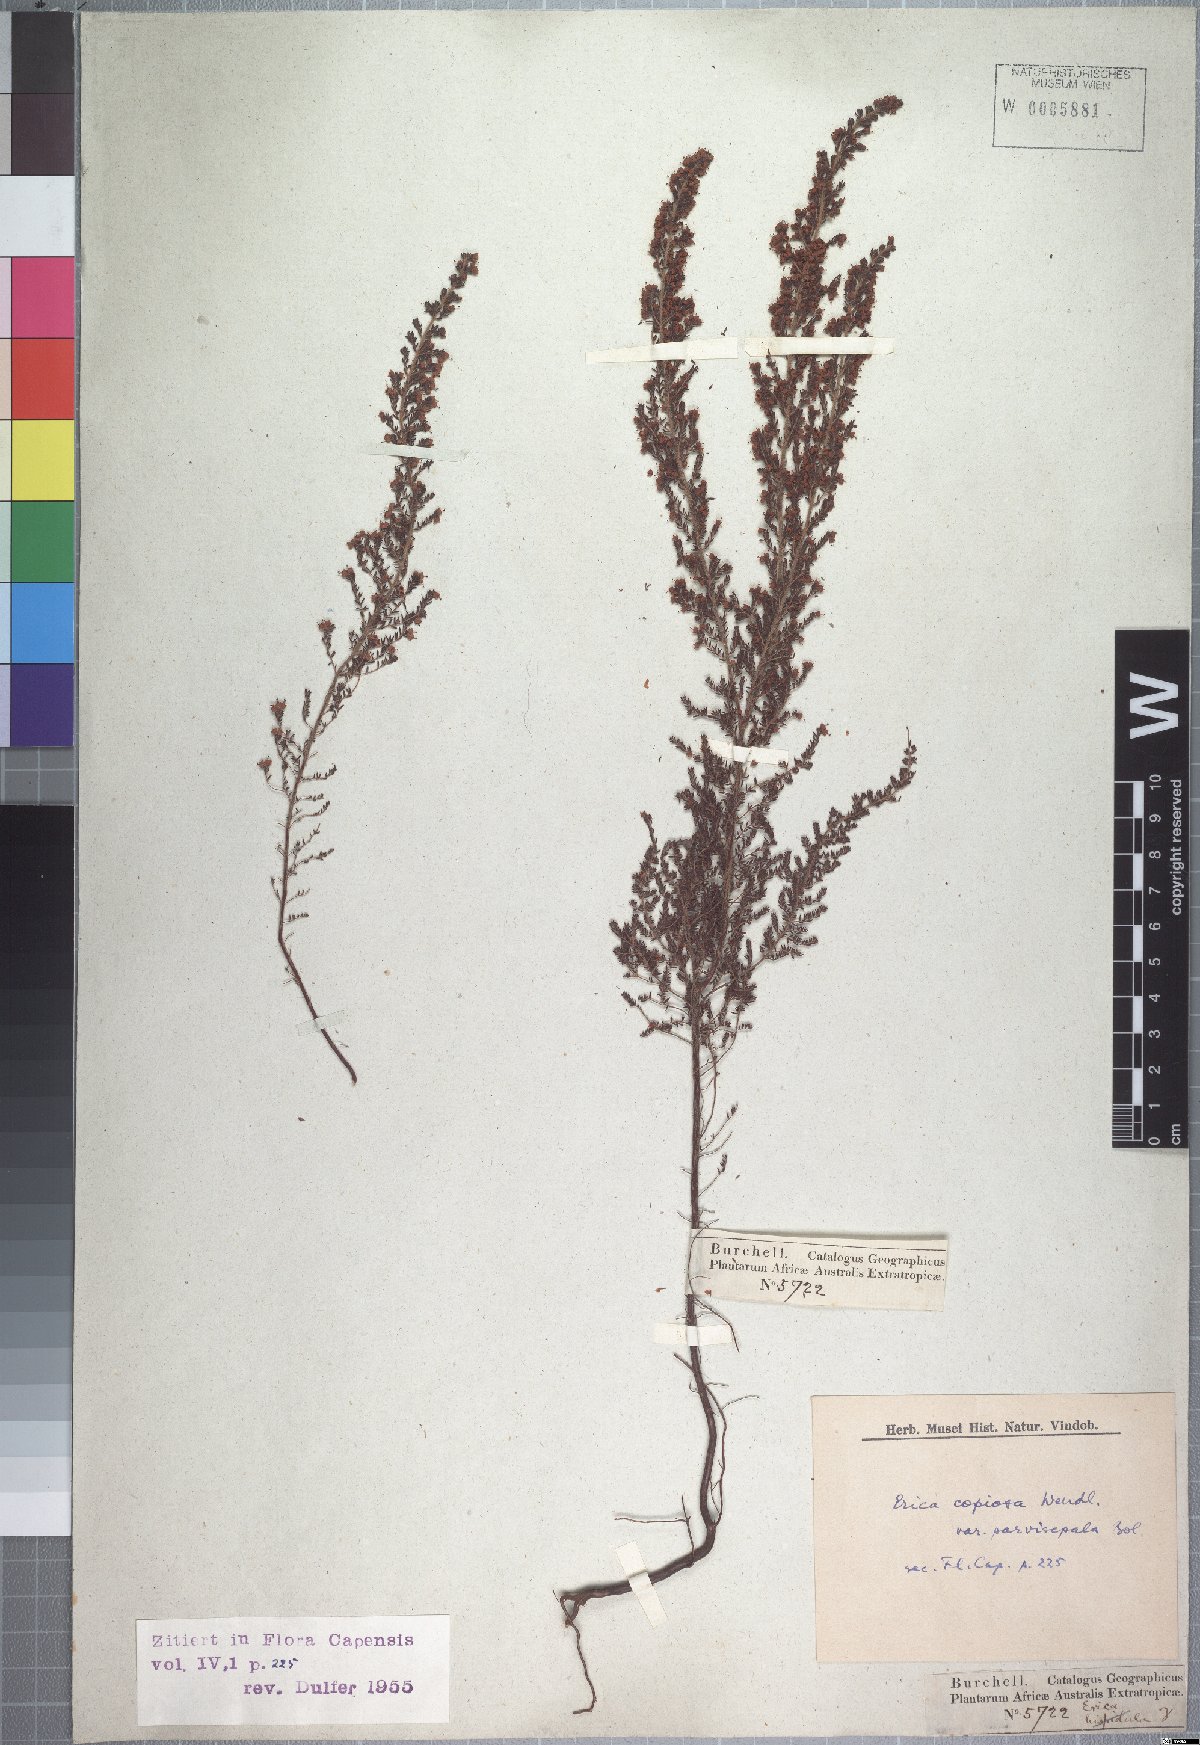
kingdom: Plantae
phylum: Tracheophyta
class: Magnoliopsida
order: Ericales
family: Ericaceae
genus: Erica
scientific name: Erica florifera
